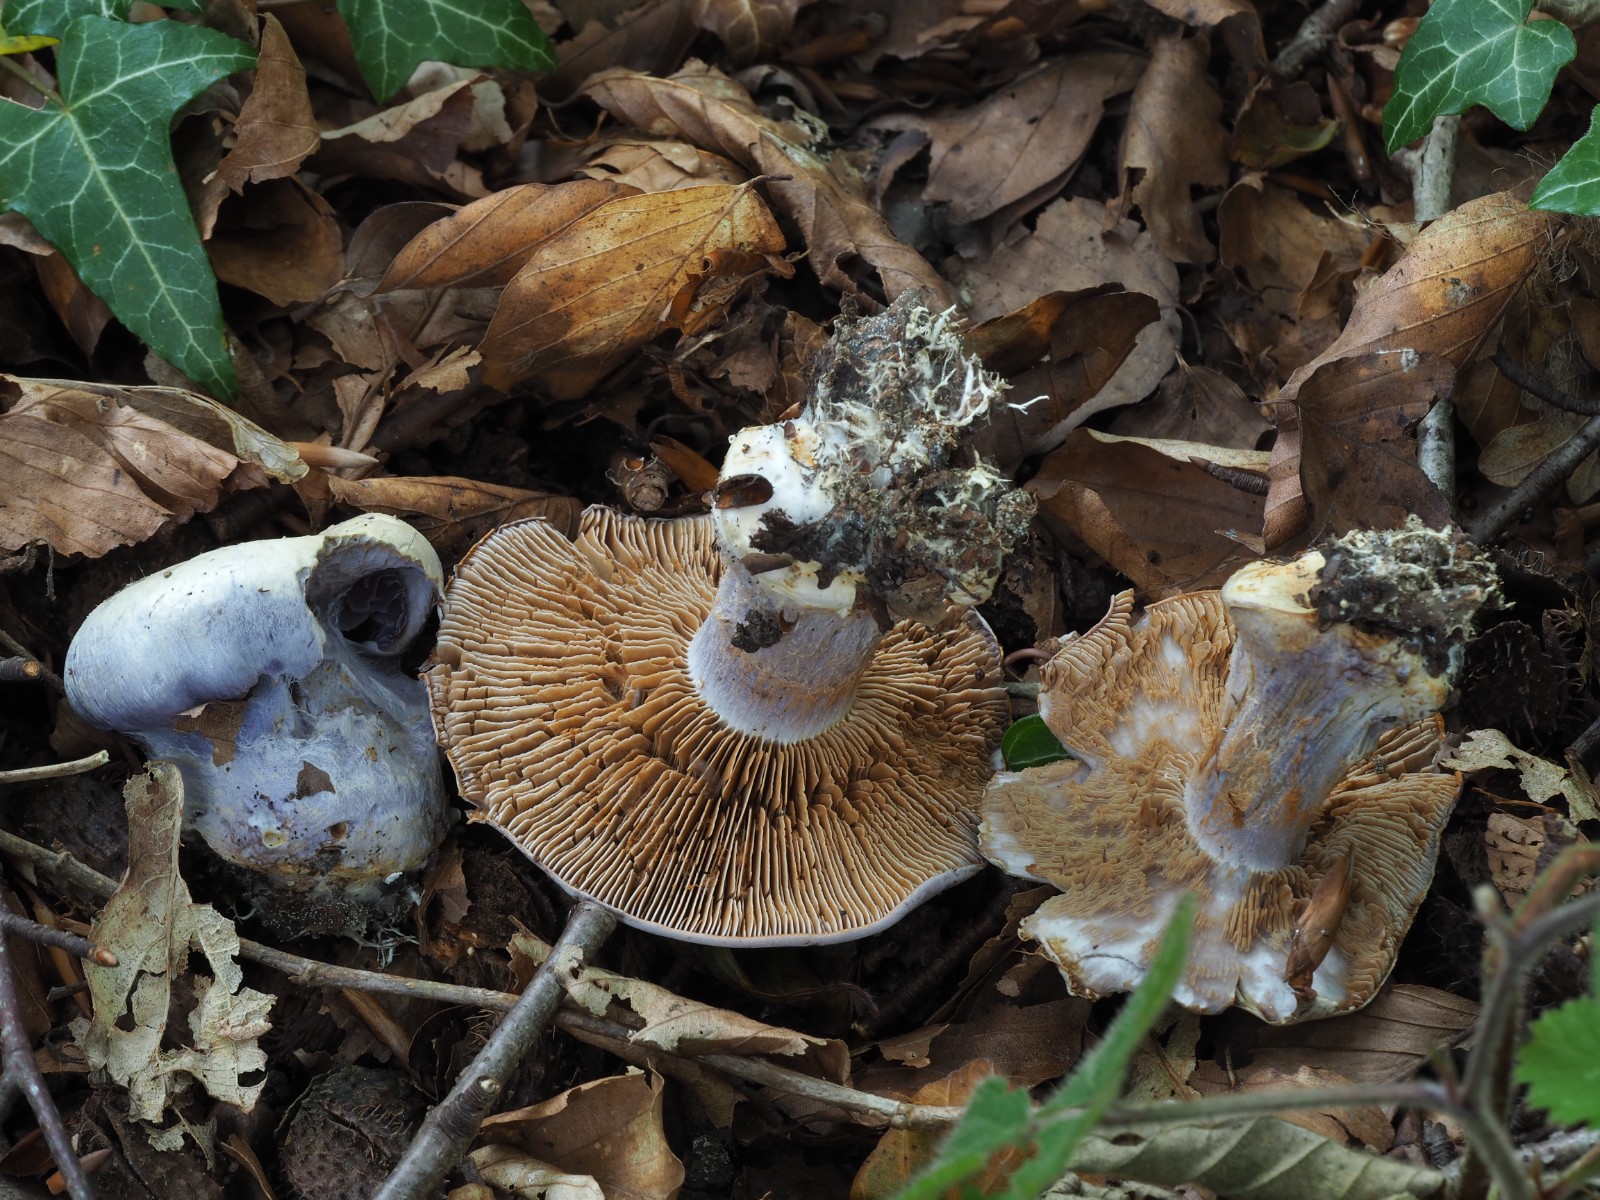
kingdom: Fungi
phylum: Basidiomycota
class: Agaricomycetes
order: Agaricales
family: Cortinariaceae
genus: Cortinarius
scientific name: Cortinarius caerulescens
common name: blåkødet slørhat
